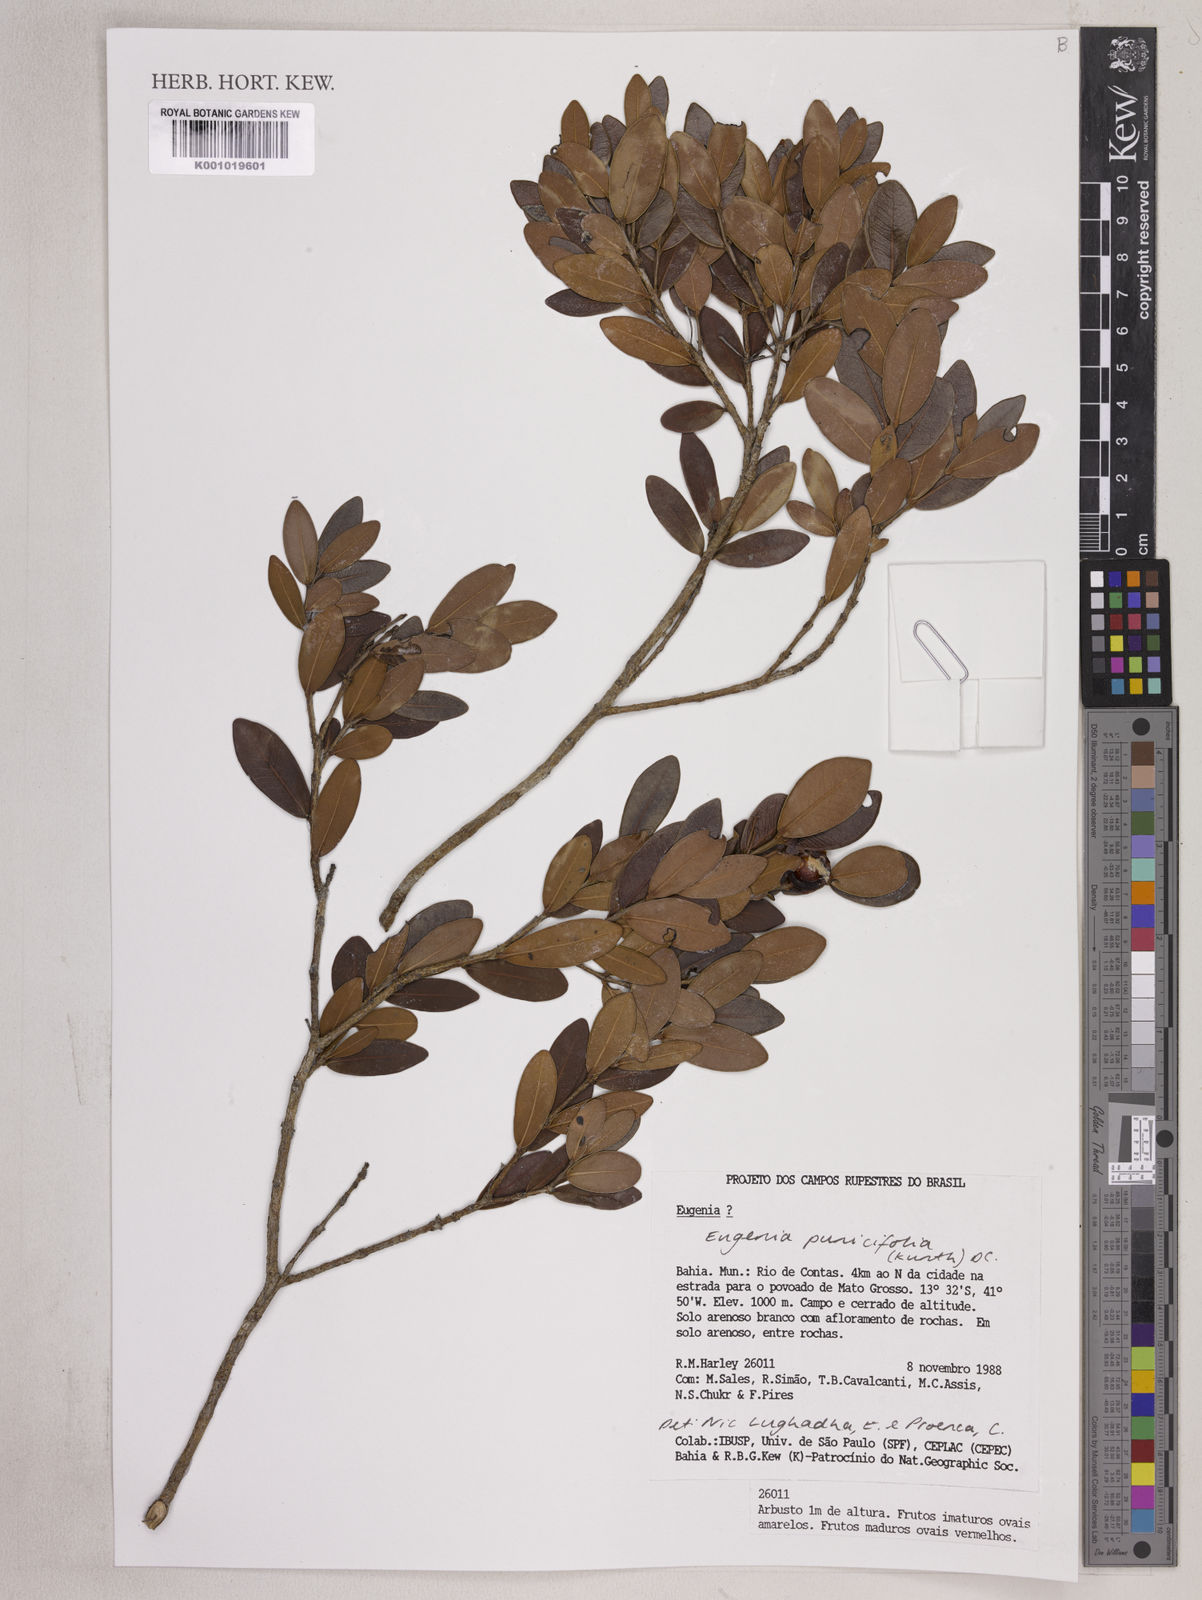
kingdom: Plantae
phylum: Tracheophyta
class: Magnoliopsida
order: Myrtales
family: Myrtaceae
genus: Eugenia
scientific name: Eugenia punicifolia
